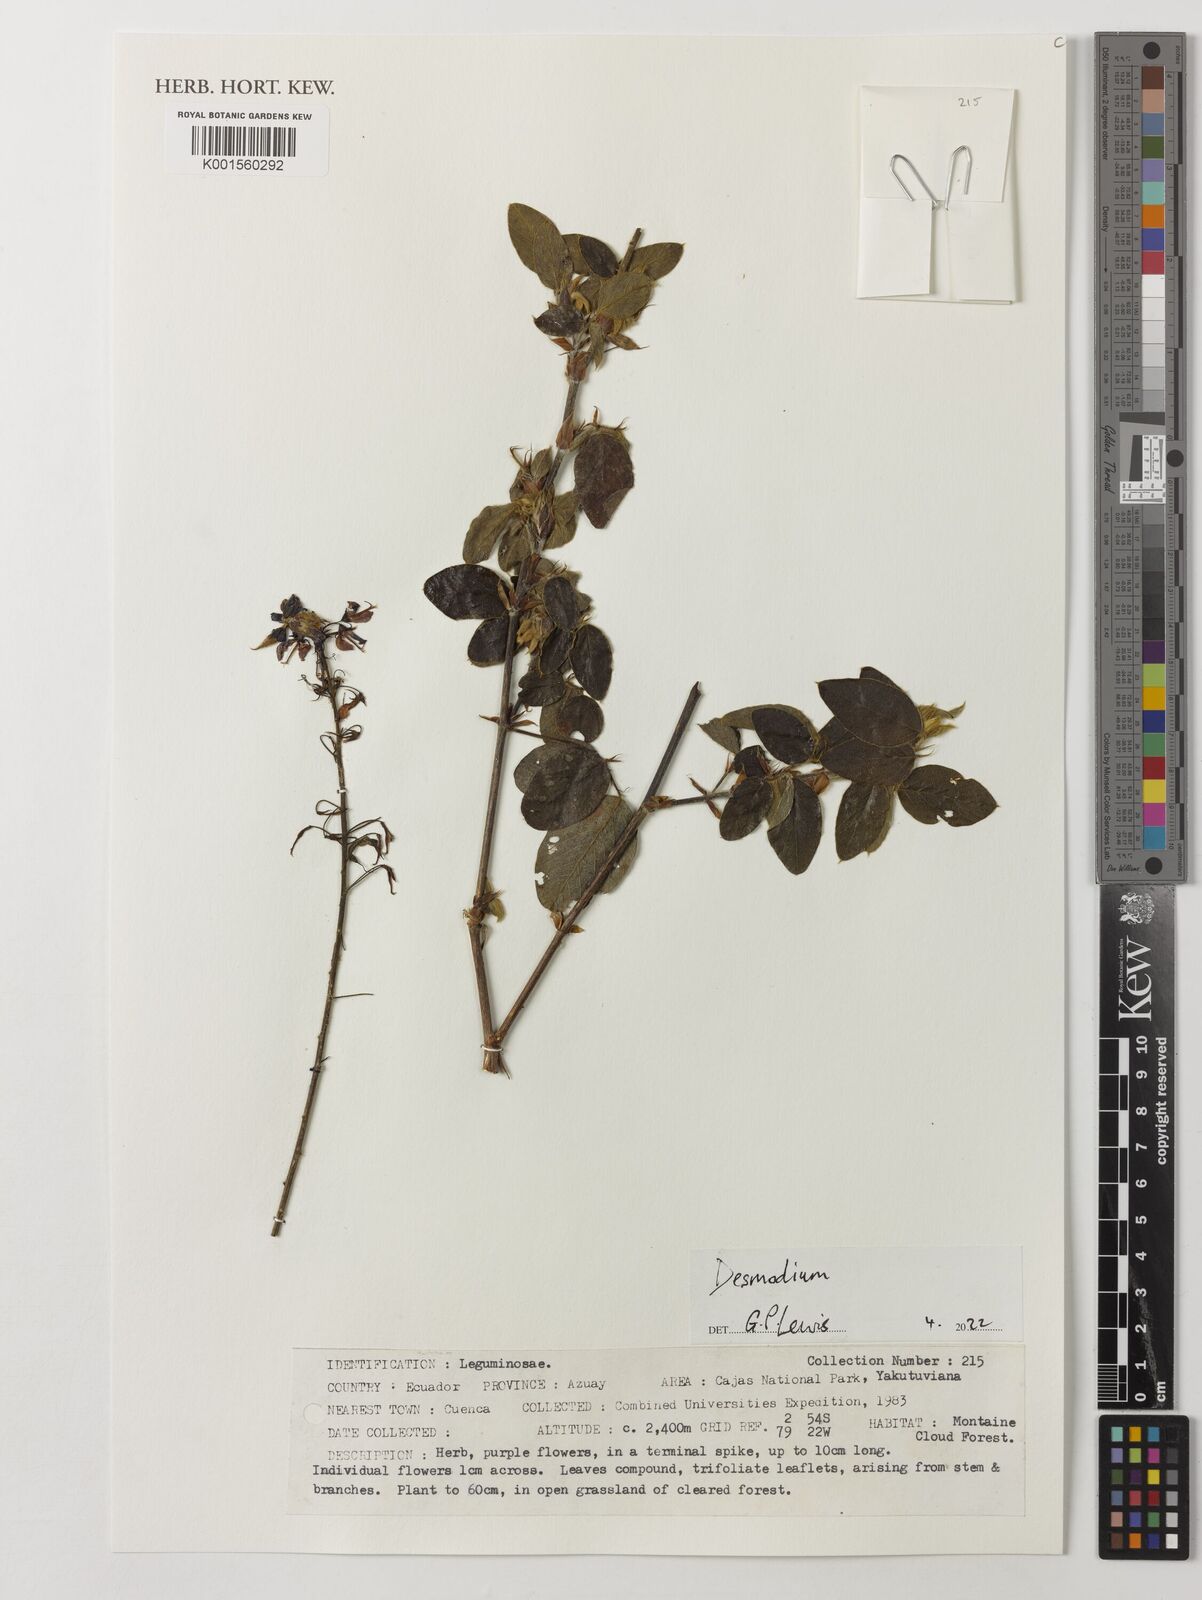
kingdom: Plantae
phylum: Tracheophyta
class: Magnoliopsida
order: Fabales
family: Fabaceae
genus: Desmodium
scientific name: Desmodium
